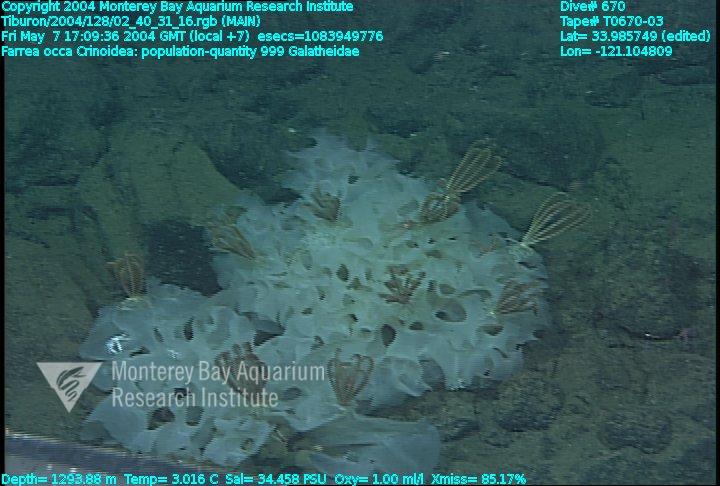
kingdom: Animalia
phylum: Porifera
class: Hexactinellida
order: Sceptrulophora
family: Farreidae
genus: Farrea
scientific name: Farrea occa
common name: Reversed glass sponge
